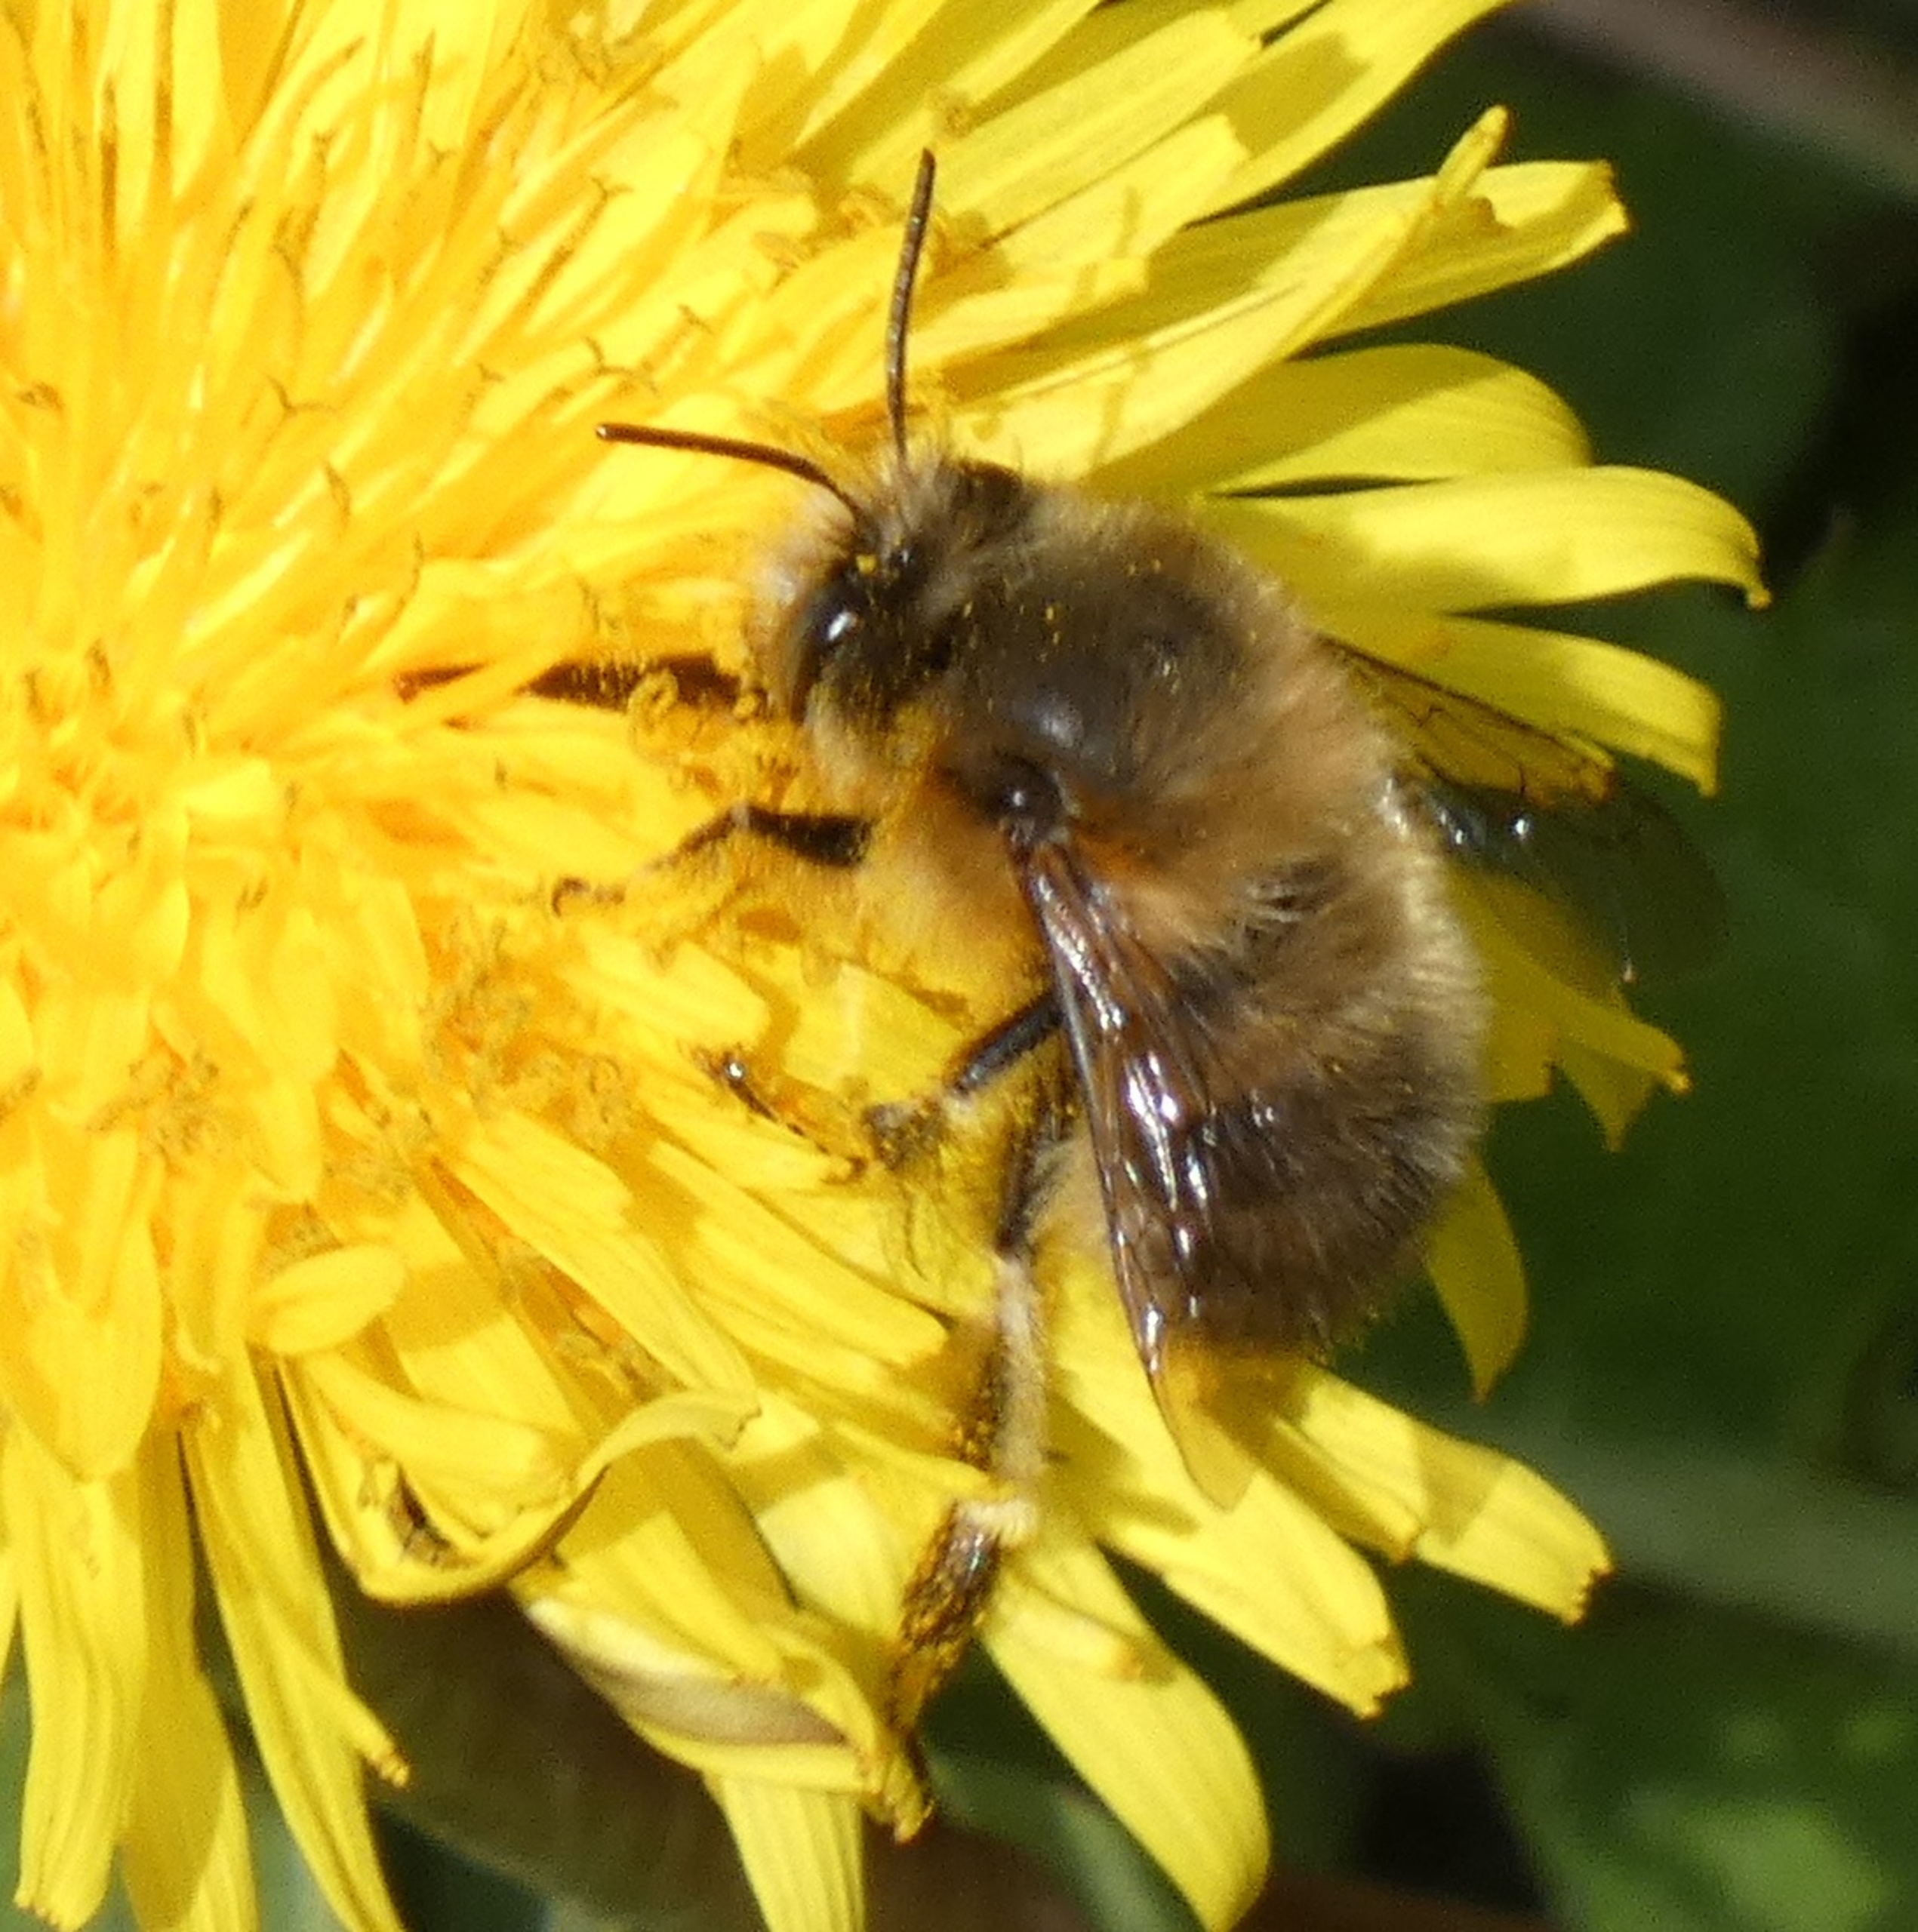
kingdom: Animalia
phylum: Arthropoda
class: Insecta
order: Hymenoptera
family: Apidae
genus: Anthophora
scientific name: Anthophora
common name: Vægbier
